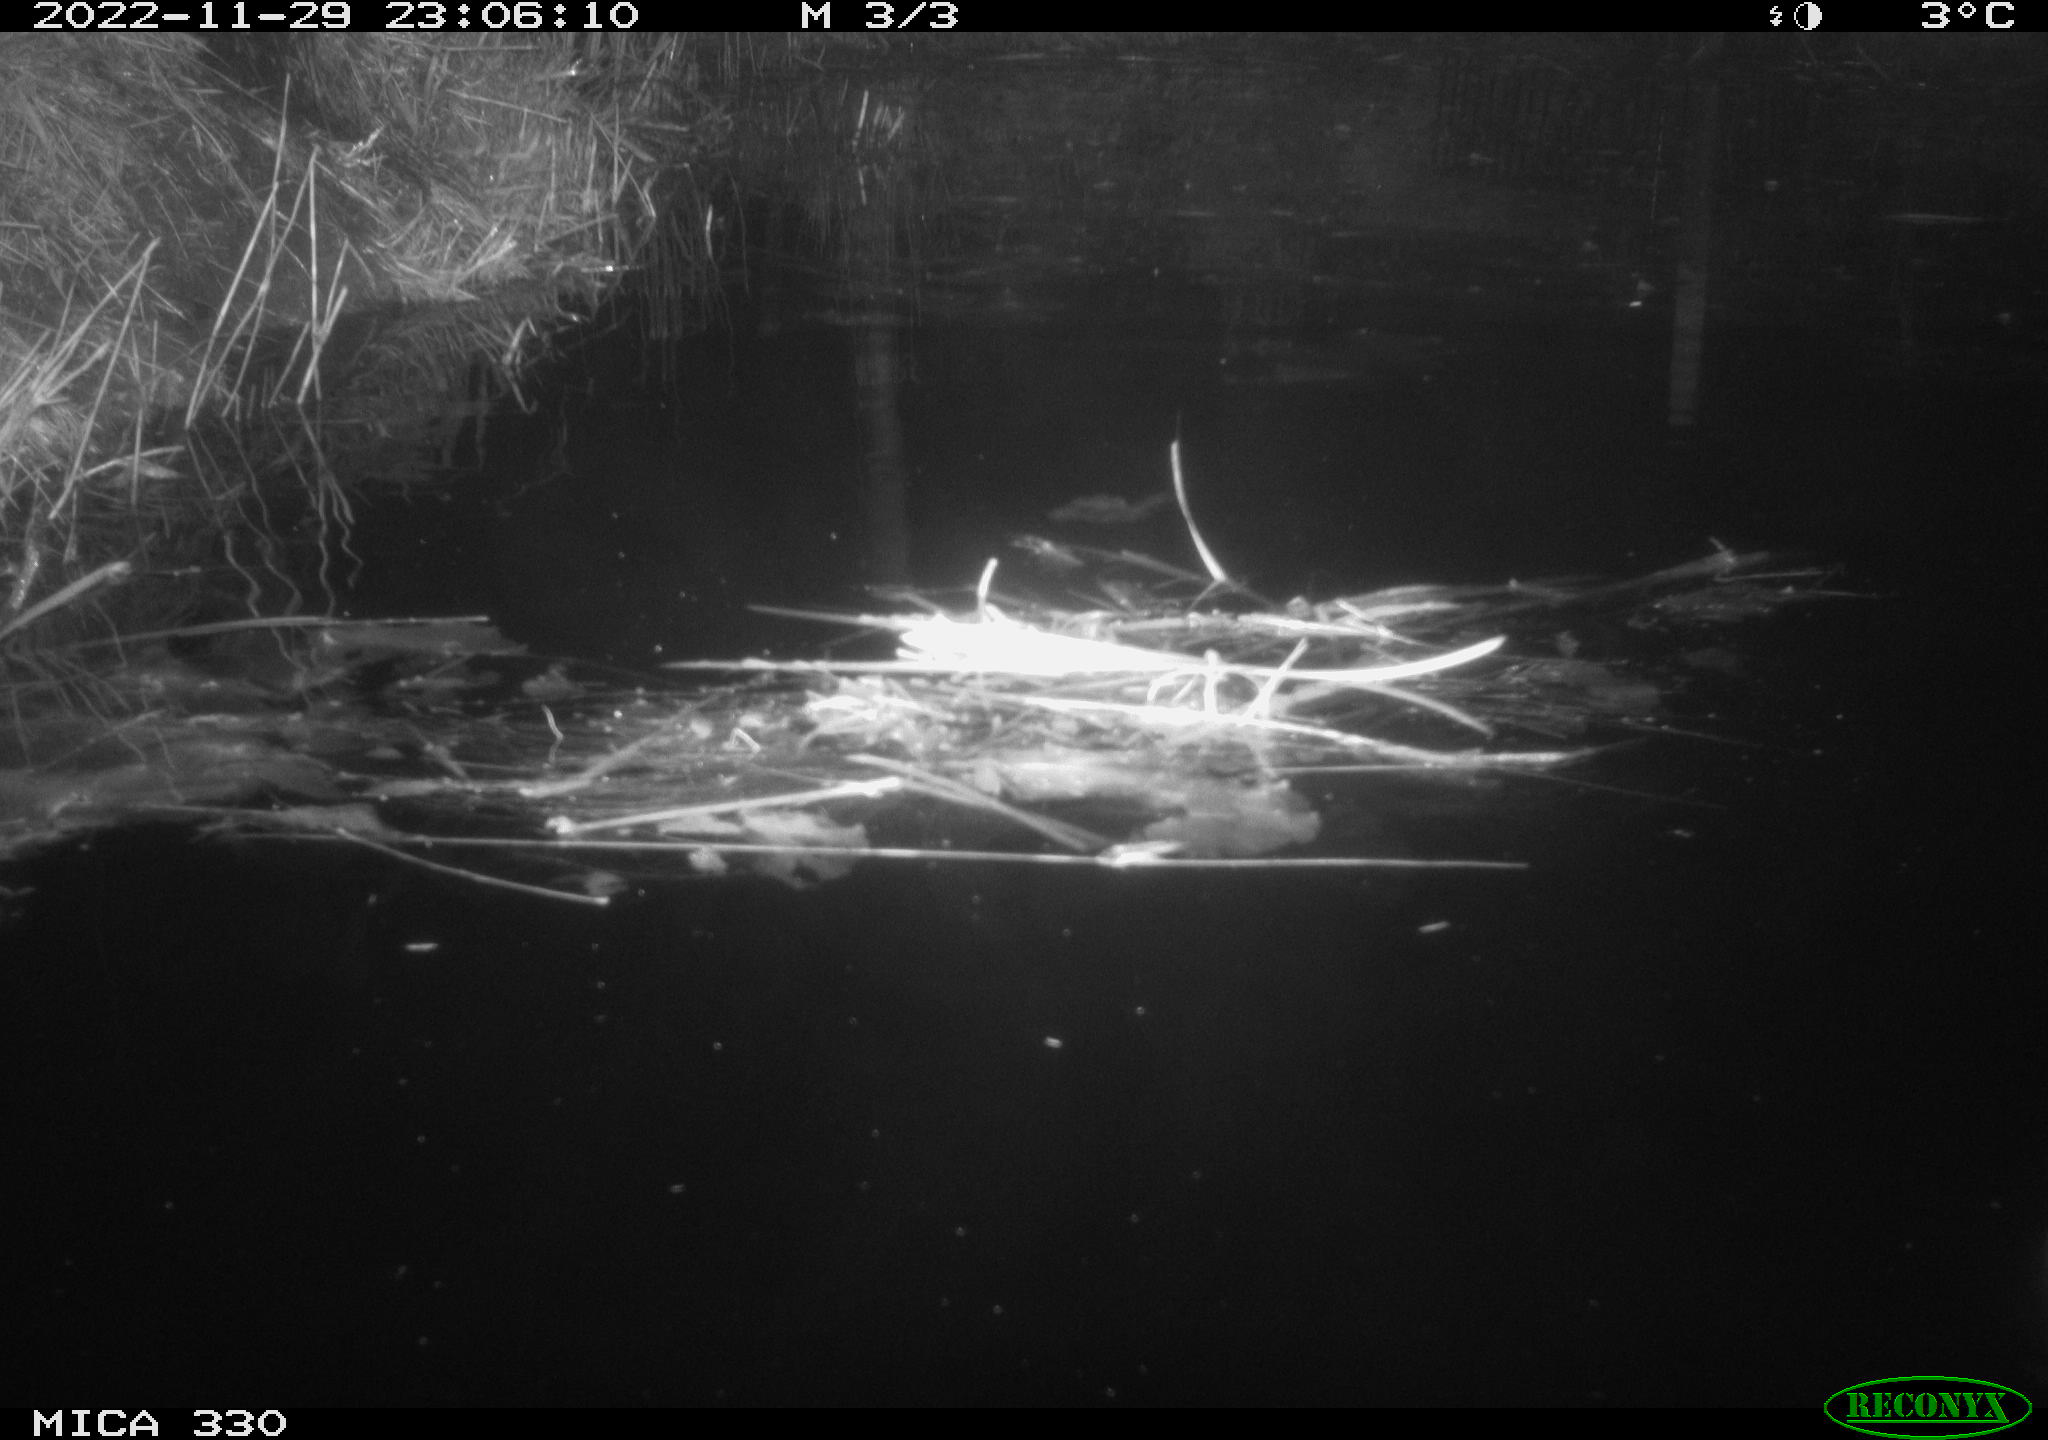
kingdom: Animalia
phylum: Chordata
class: Aves
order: Gruiformes
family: Rallidae
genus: Gallinula
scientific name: Gallinula chloropus
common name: Common moorhen
